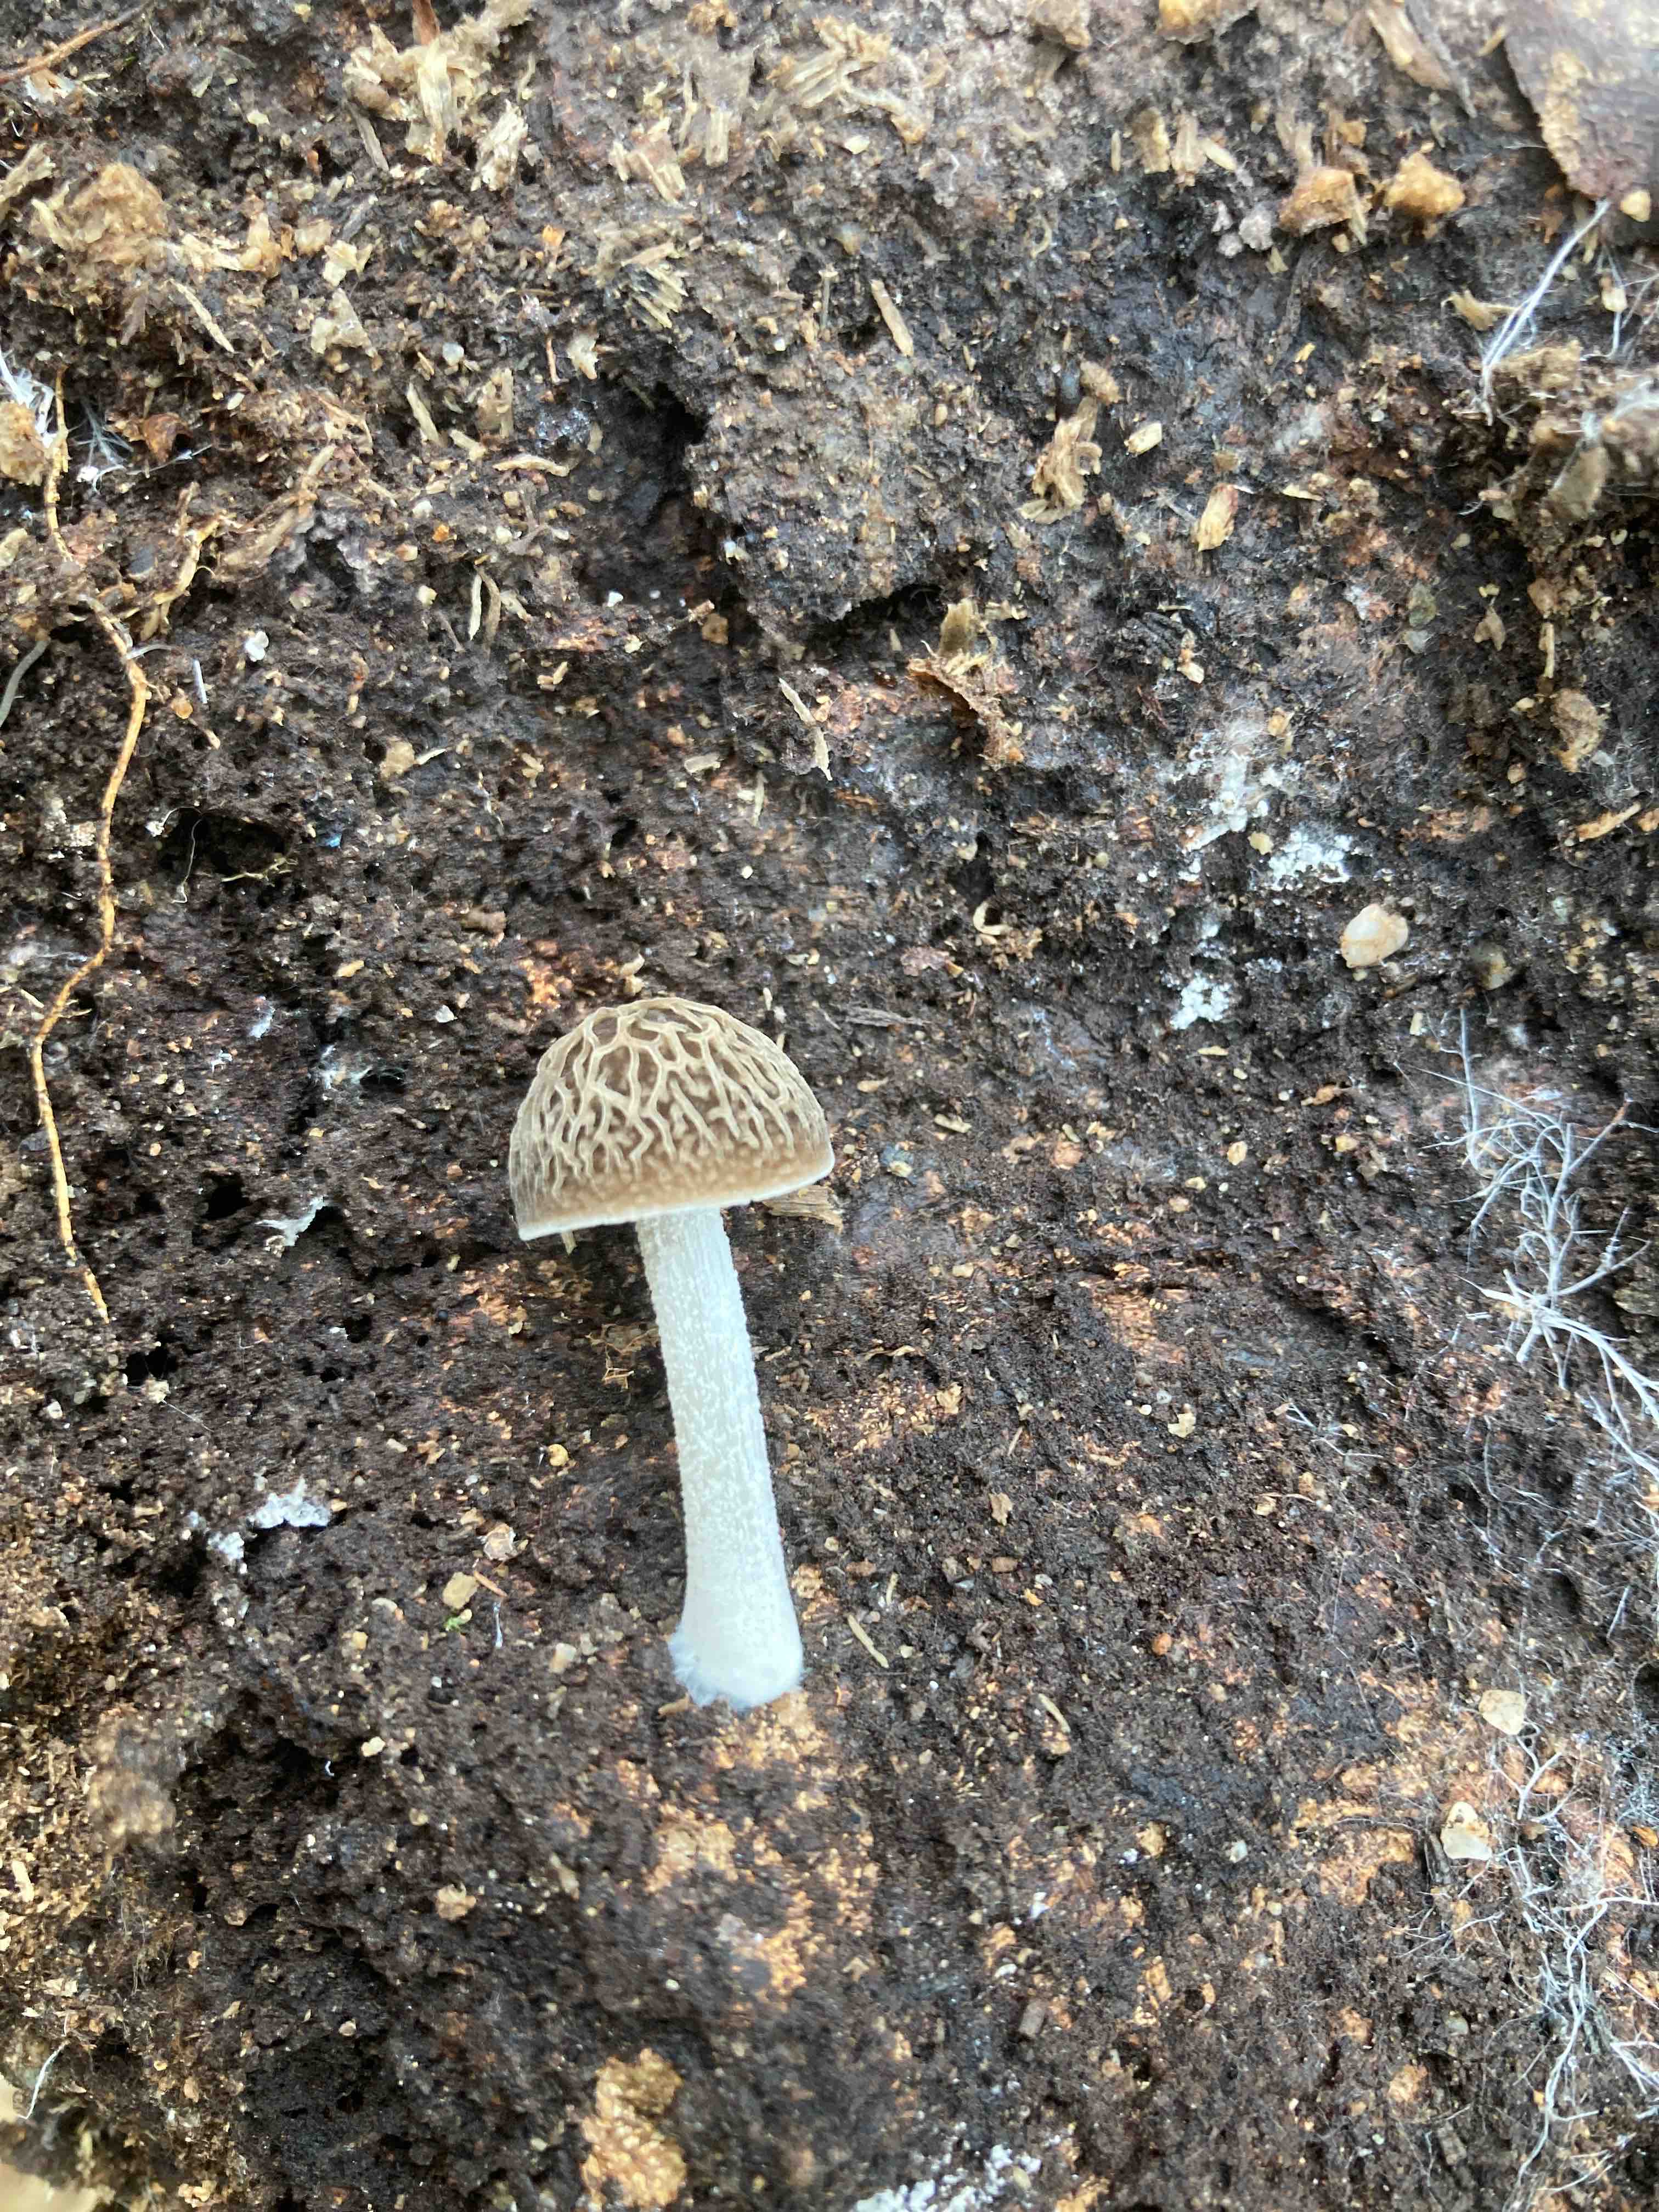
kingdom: Fungi
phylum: Basidiomycota
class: Agaricomycetes
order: Agaricales
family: Pluteaceae
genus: Pluteus
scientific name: Pluteus
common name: gråstokket skærmhat
